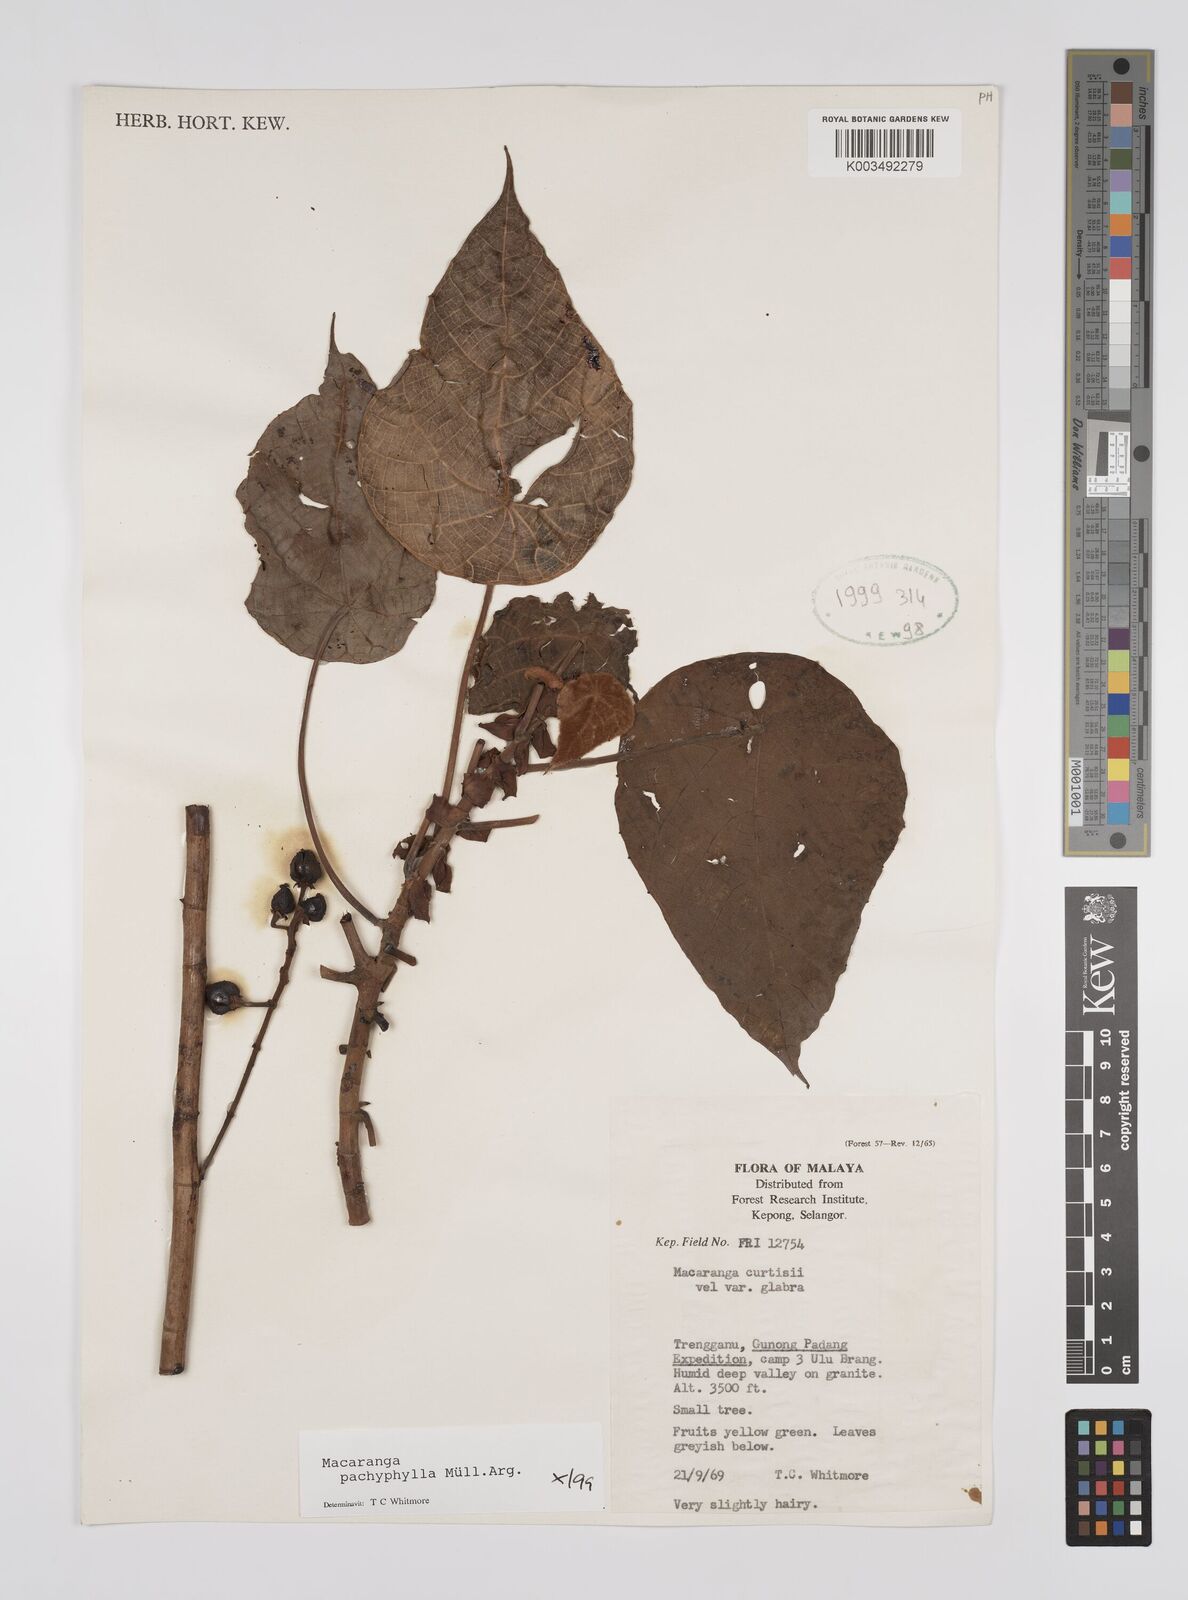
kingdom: Plantae
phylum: Tracheophyta
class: Magnoliopsida
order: Malpighiales
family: Euphorbiaceae
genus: Macaranga
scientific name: Macaranga pachyphylla
